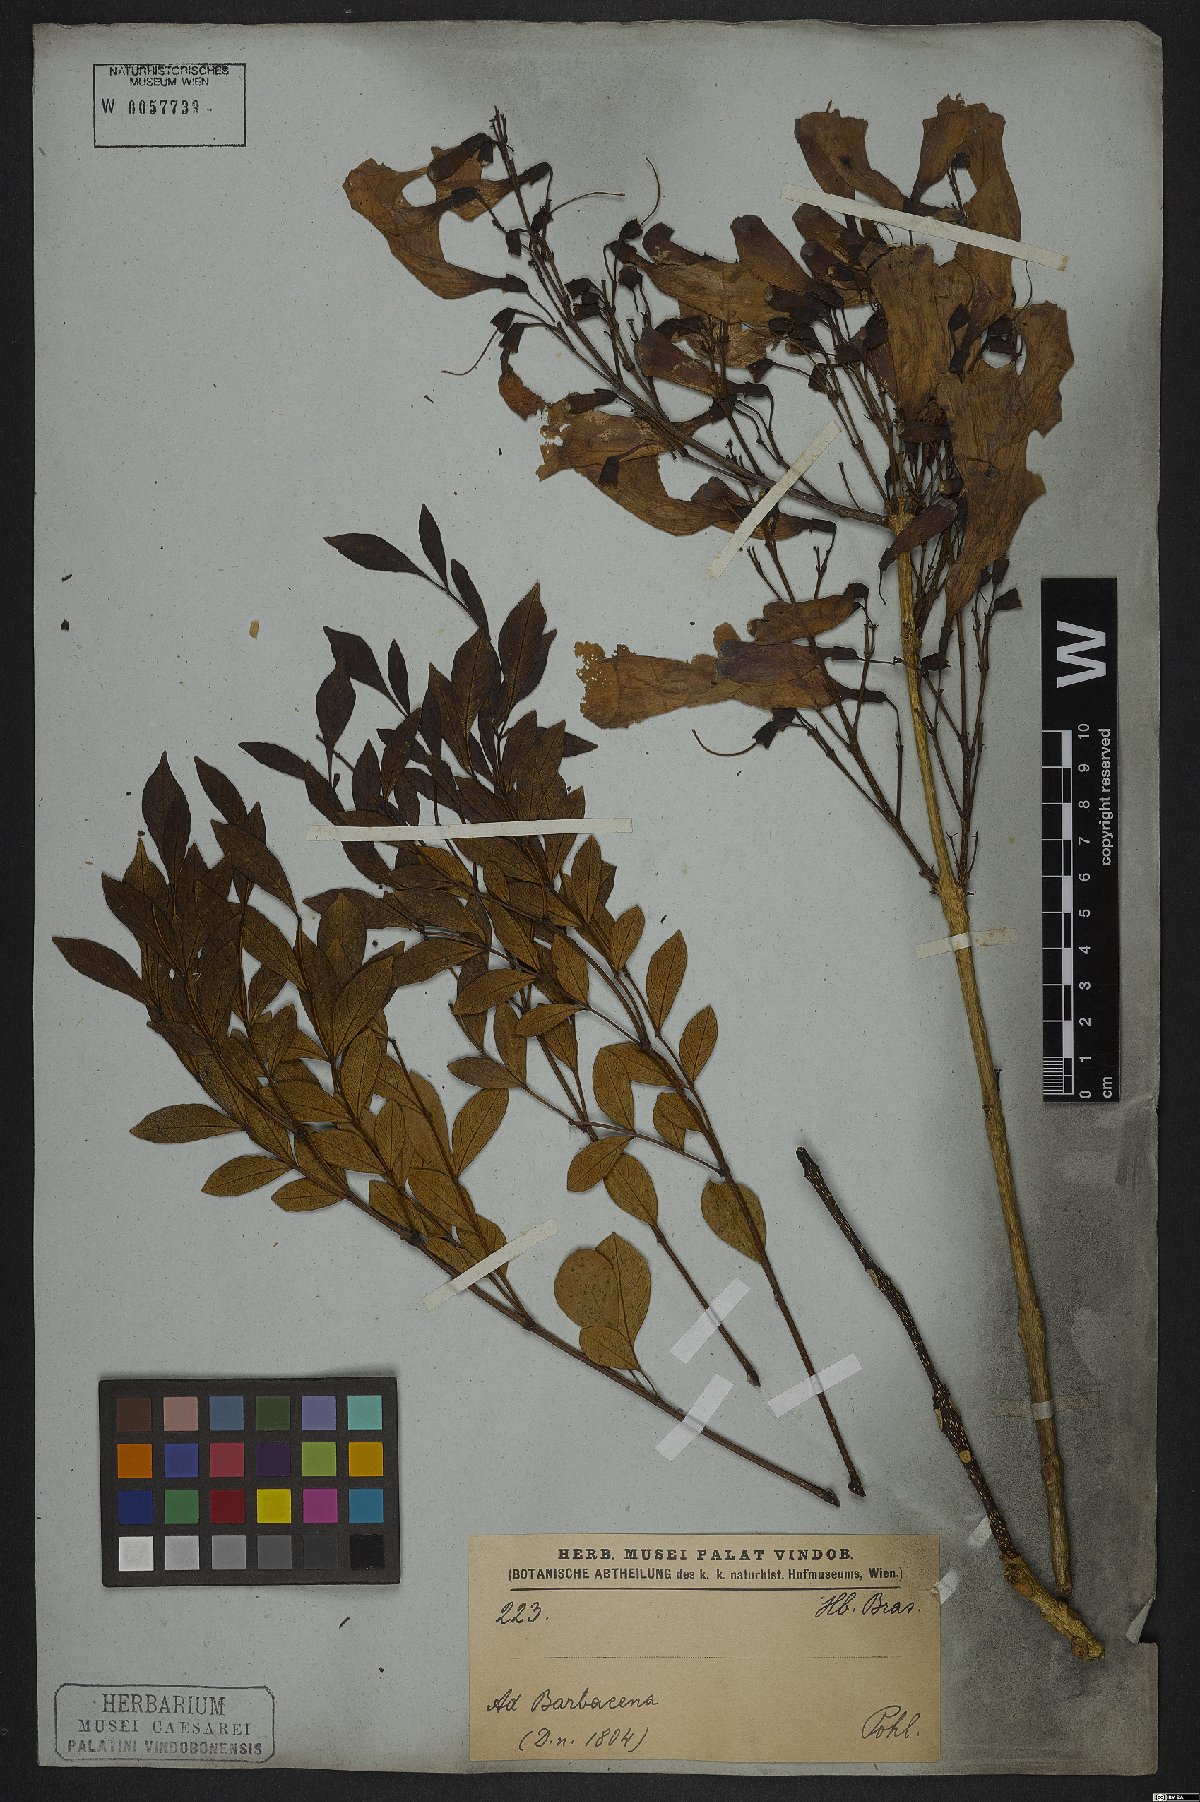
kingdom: Plantae
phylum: Tracheophyta
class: Magnoliopsida
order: Lamiales
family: Bignoniaceae
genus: Jacaranda
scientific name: Jacaranda caroba
